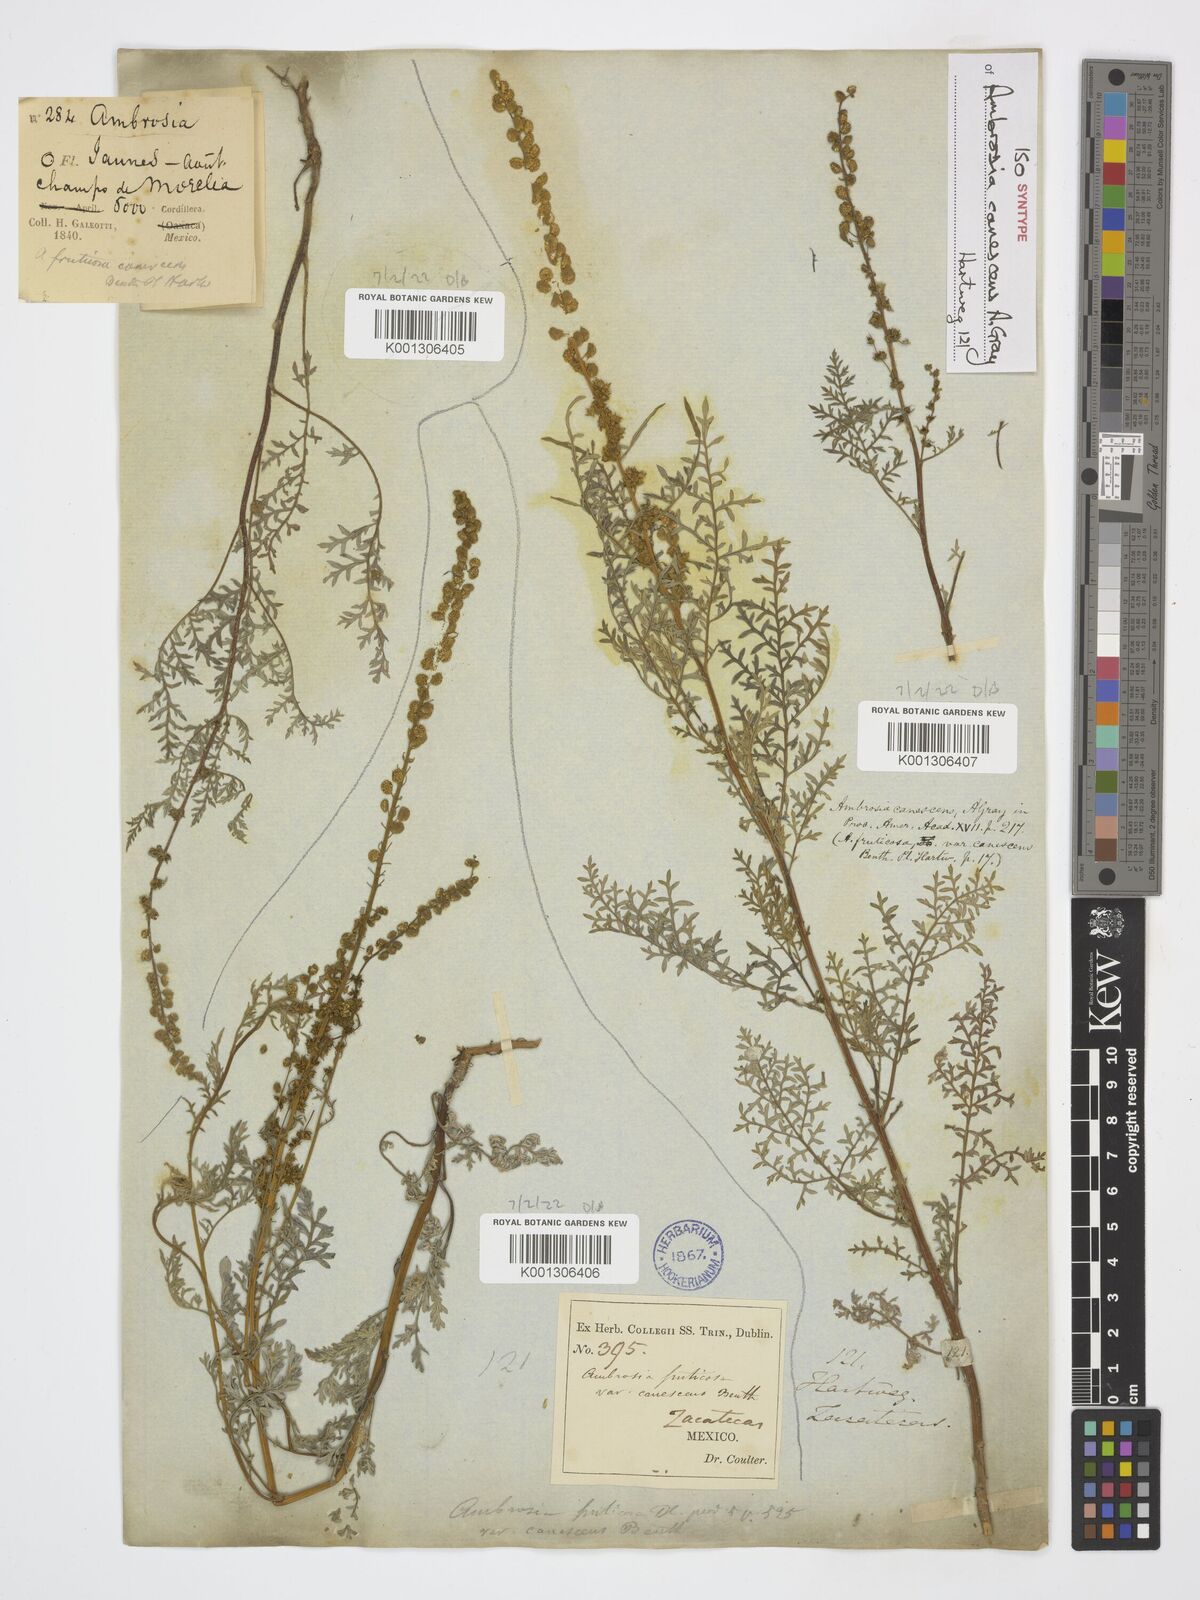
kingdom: Plantae
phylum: Tracheophyta
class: Magnoliopsida
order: Asterales
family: Asteraceae
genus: Ambrosia
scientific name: Ambrosia canescens
